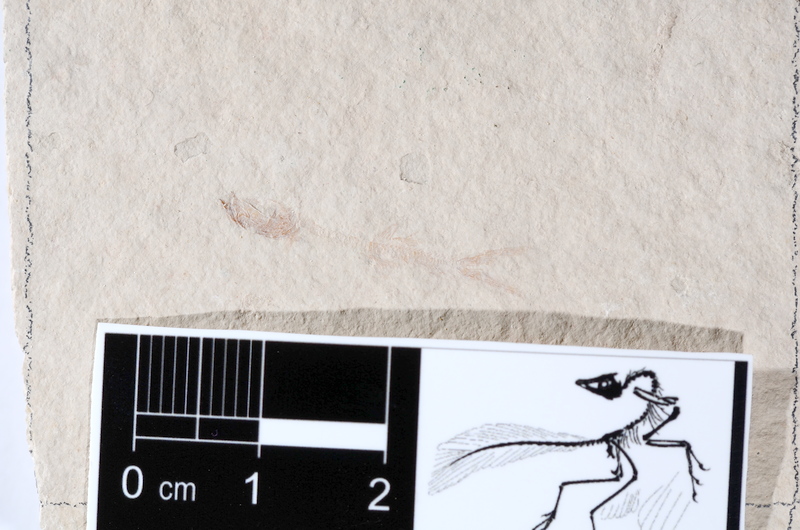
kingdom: Animalia
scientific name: Animalia
